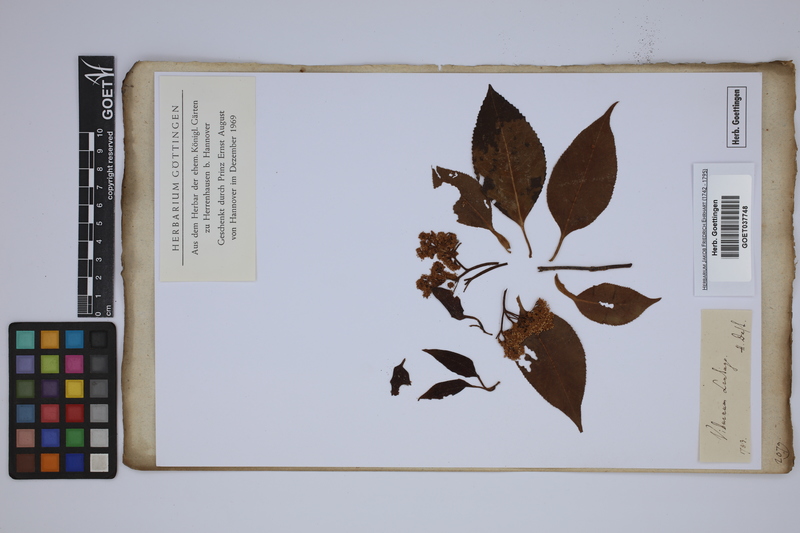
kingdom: Plantae
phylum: Tracheophyta
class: Magnoliopsida
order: Dipsacales
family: Viburnaceae
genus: Viburnum
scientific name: Viburnum lentago
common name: Black haw
